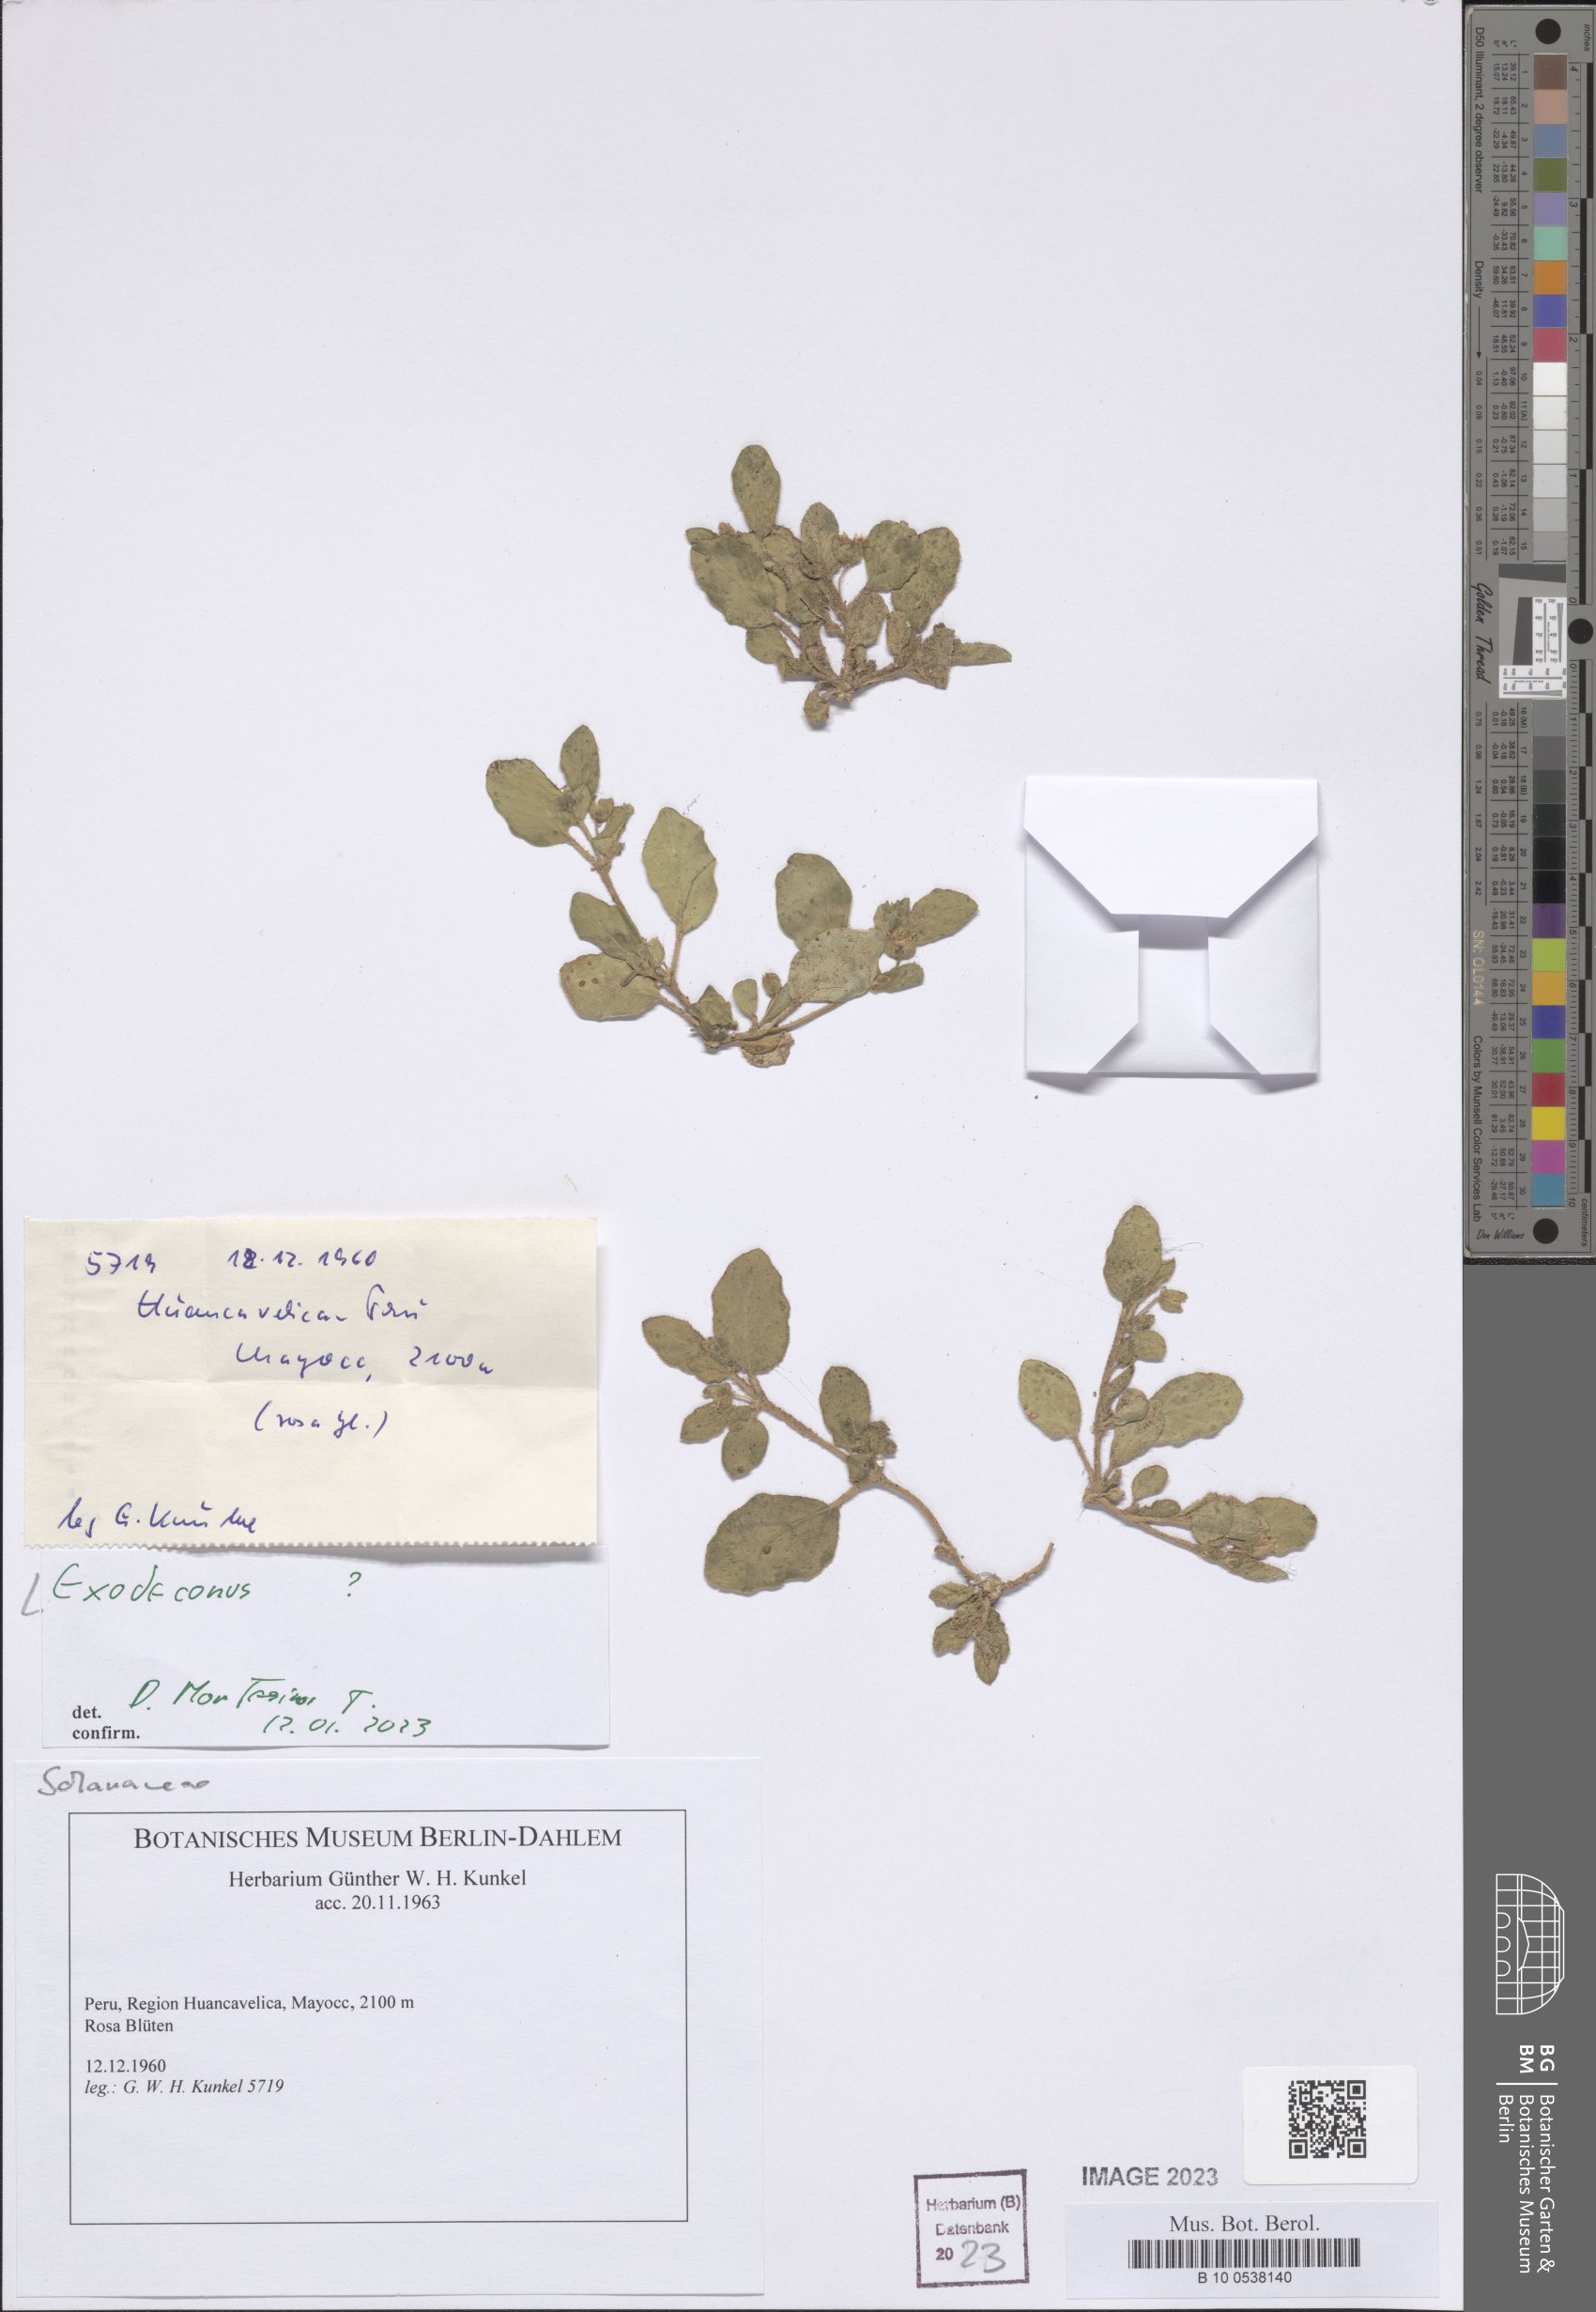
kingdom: Plantae
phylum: Tracheophyta
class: Magnoliopsida
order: Solanales
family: Solanaceae
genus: Exodeconus
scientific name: Exodeconus
